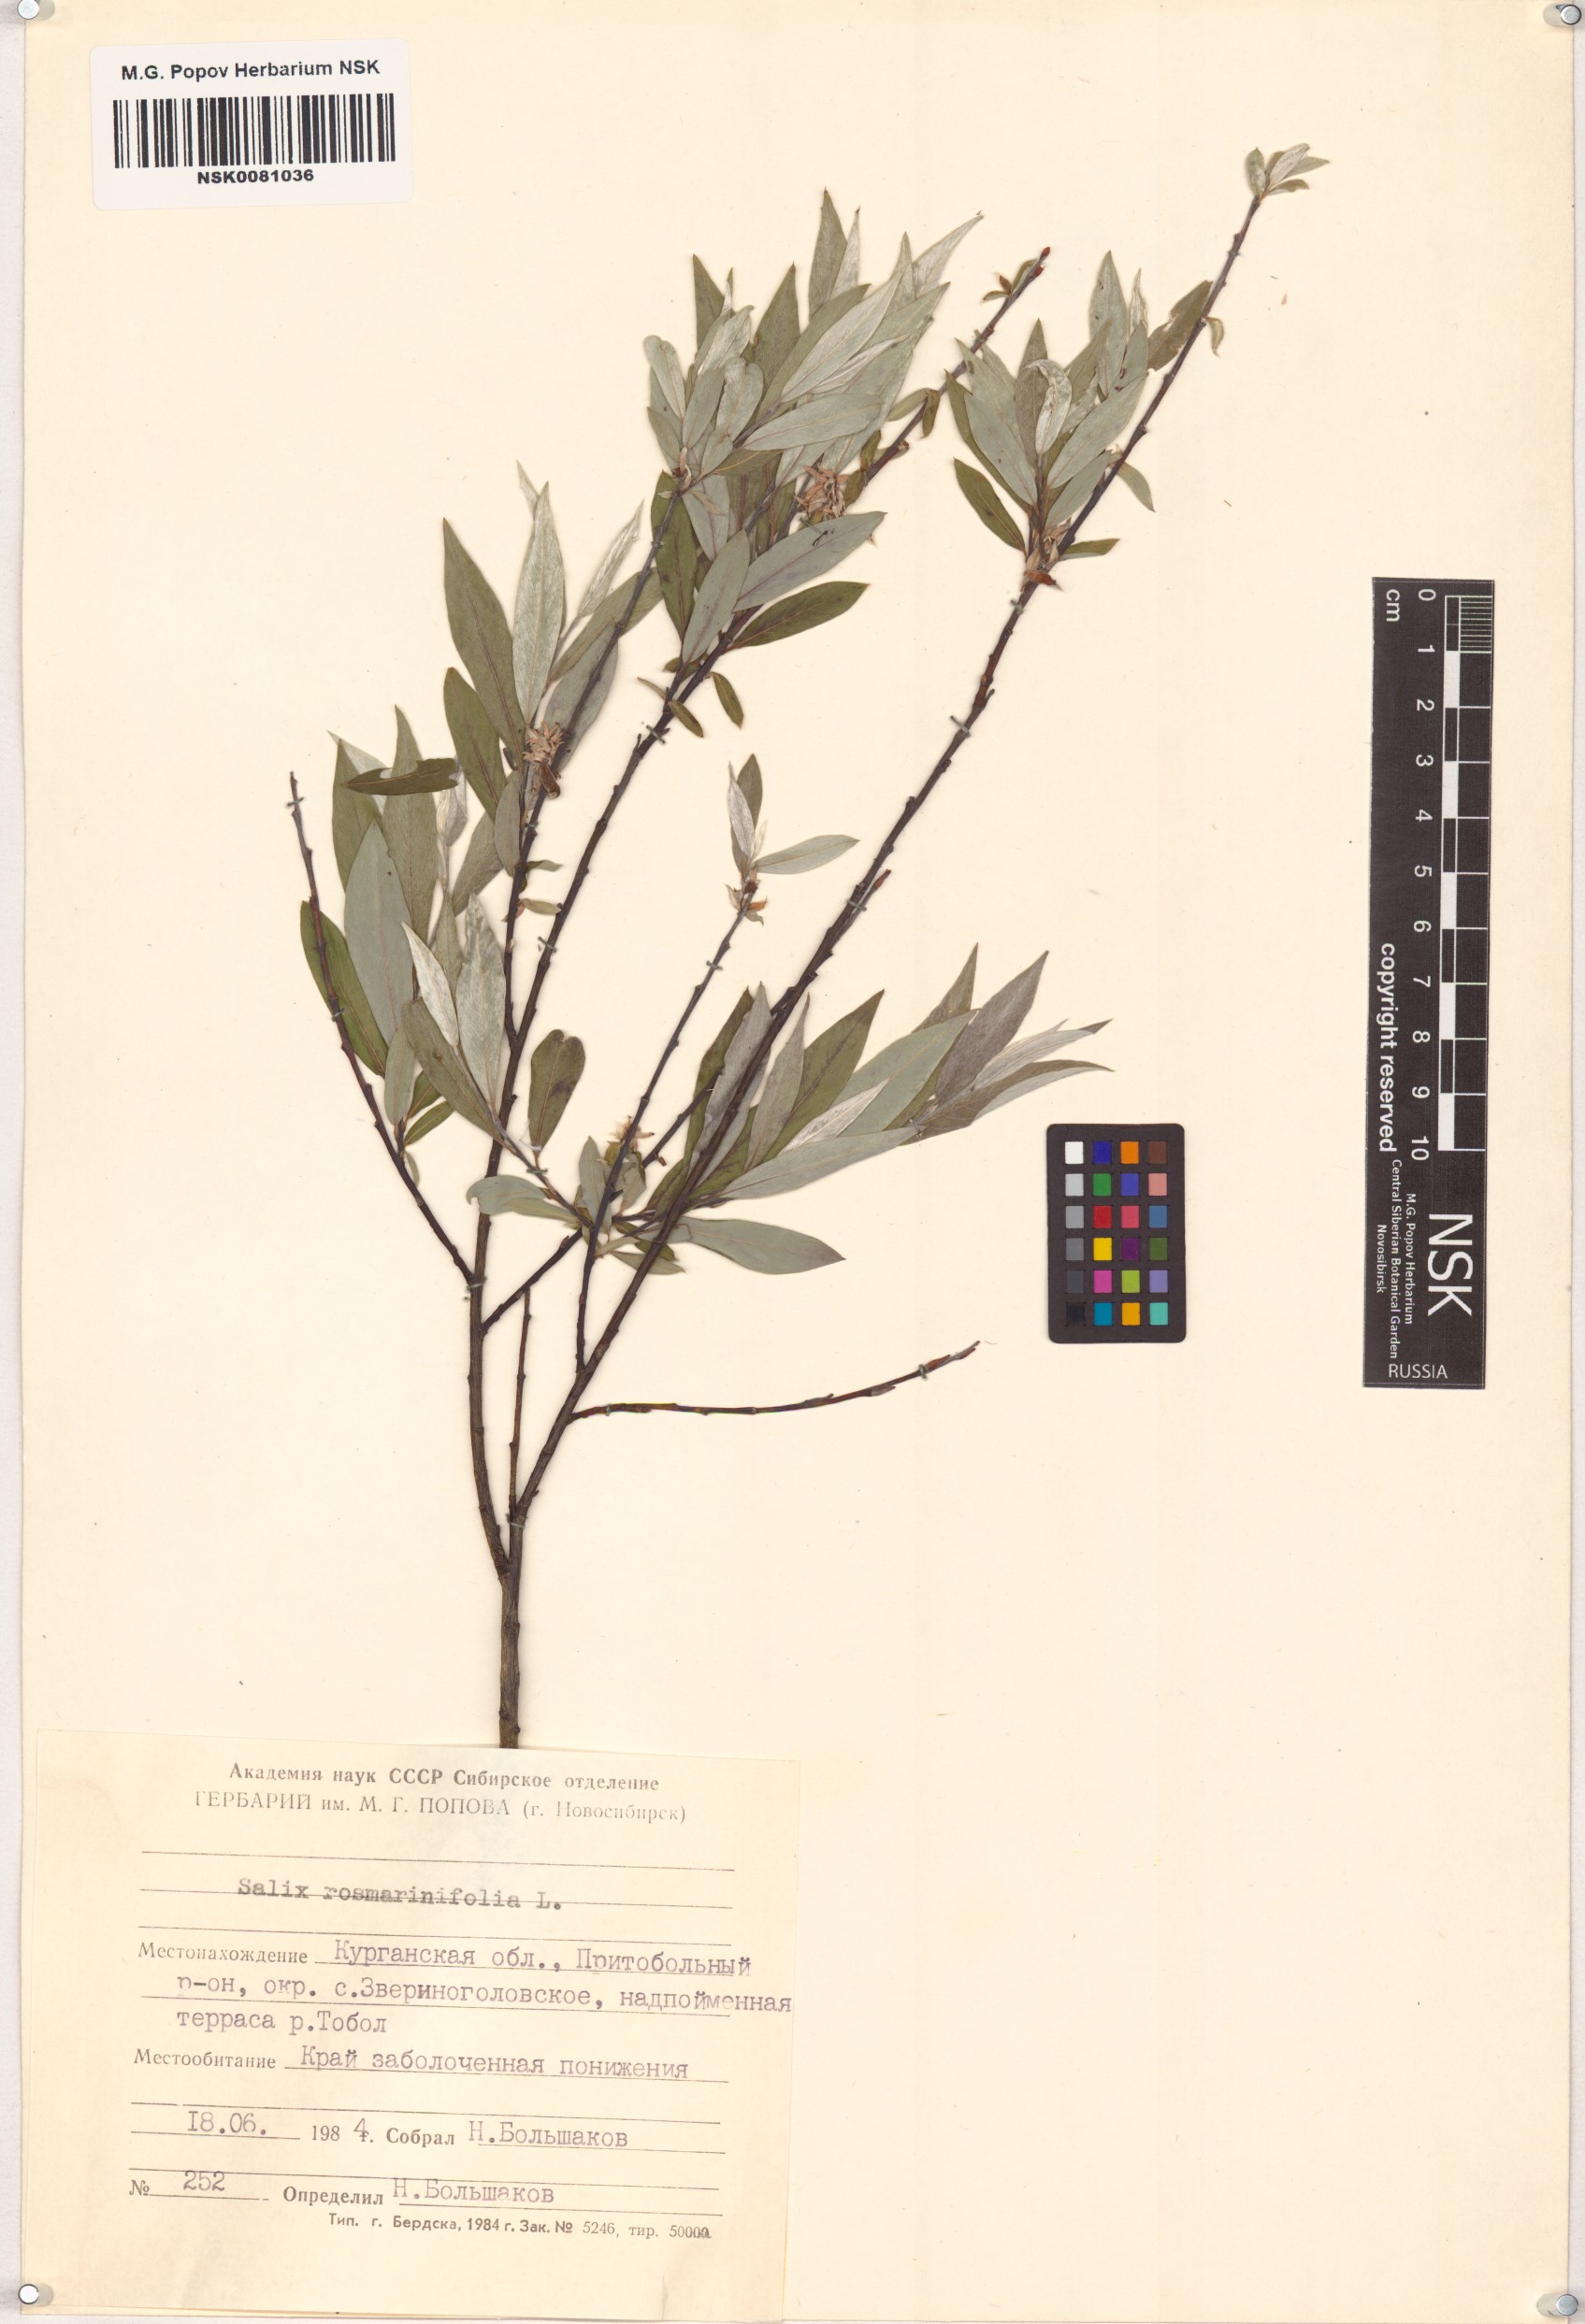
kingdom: Plantae
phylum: Tracheophyta
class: Magnoliopsida
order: Malpighiales
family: Salicaceae
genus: Salix
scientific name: Salix rosmarinifolia
